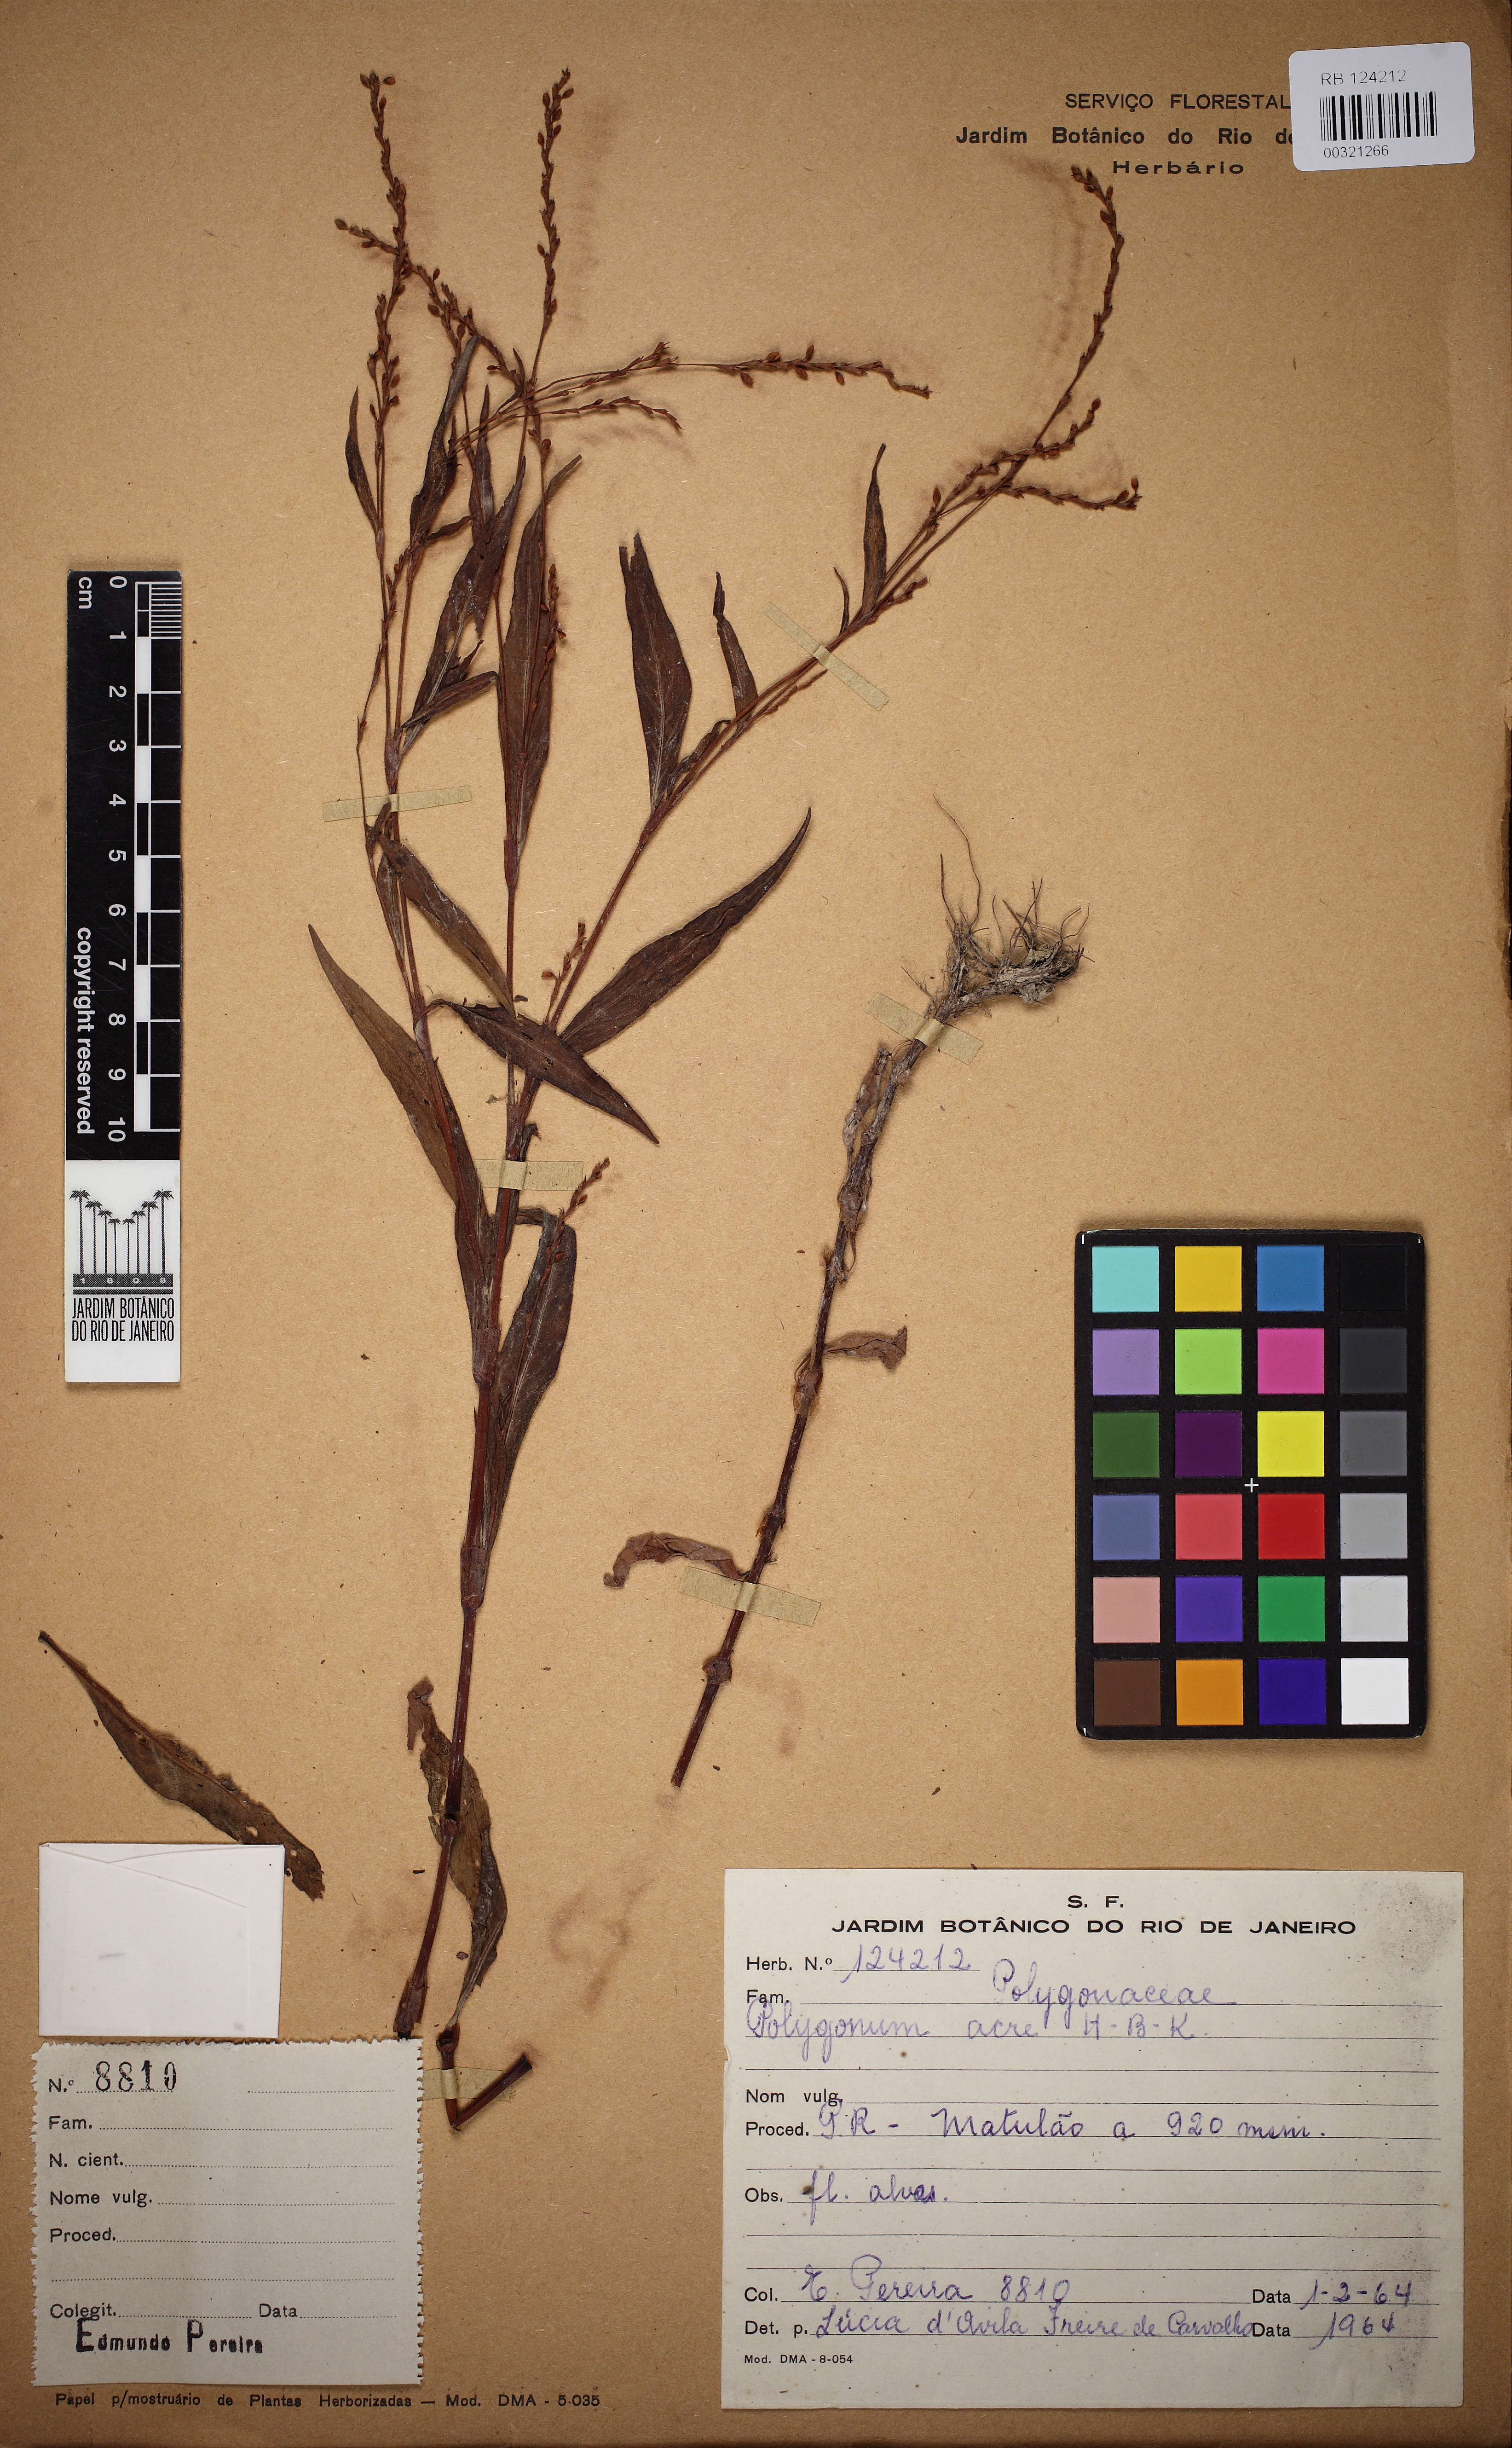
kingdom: Plantae
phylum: Tracheophyta
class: Magnoliopsida
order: Caryophyllales
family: Polygonaceae
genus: Persicaria
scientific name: Persicaria punctata
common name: Dotted smartweed
